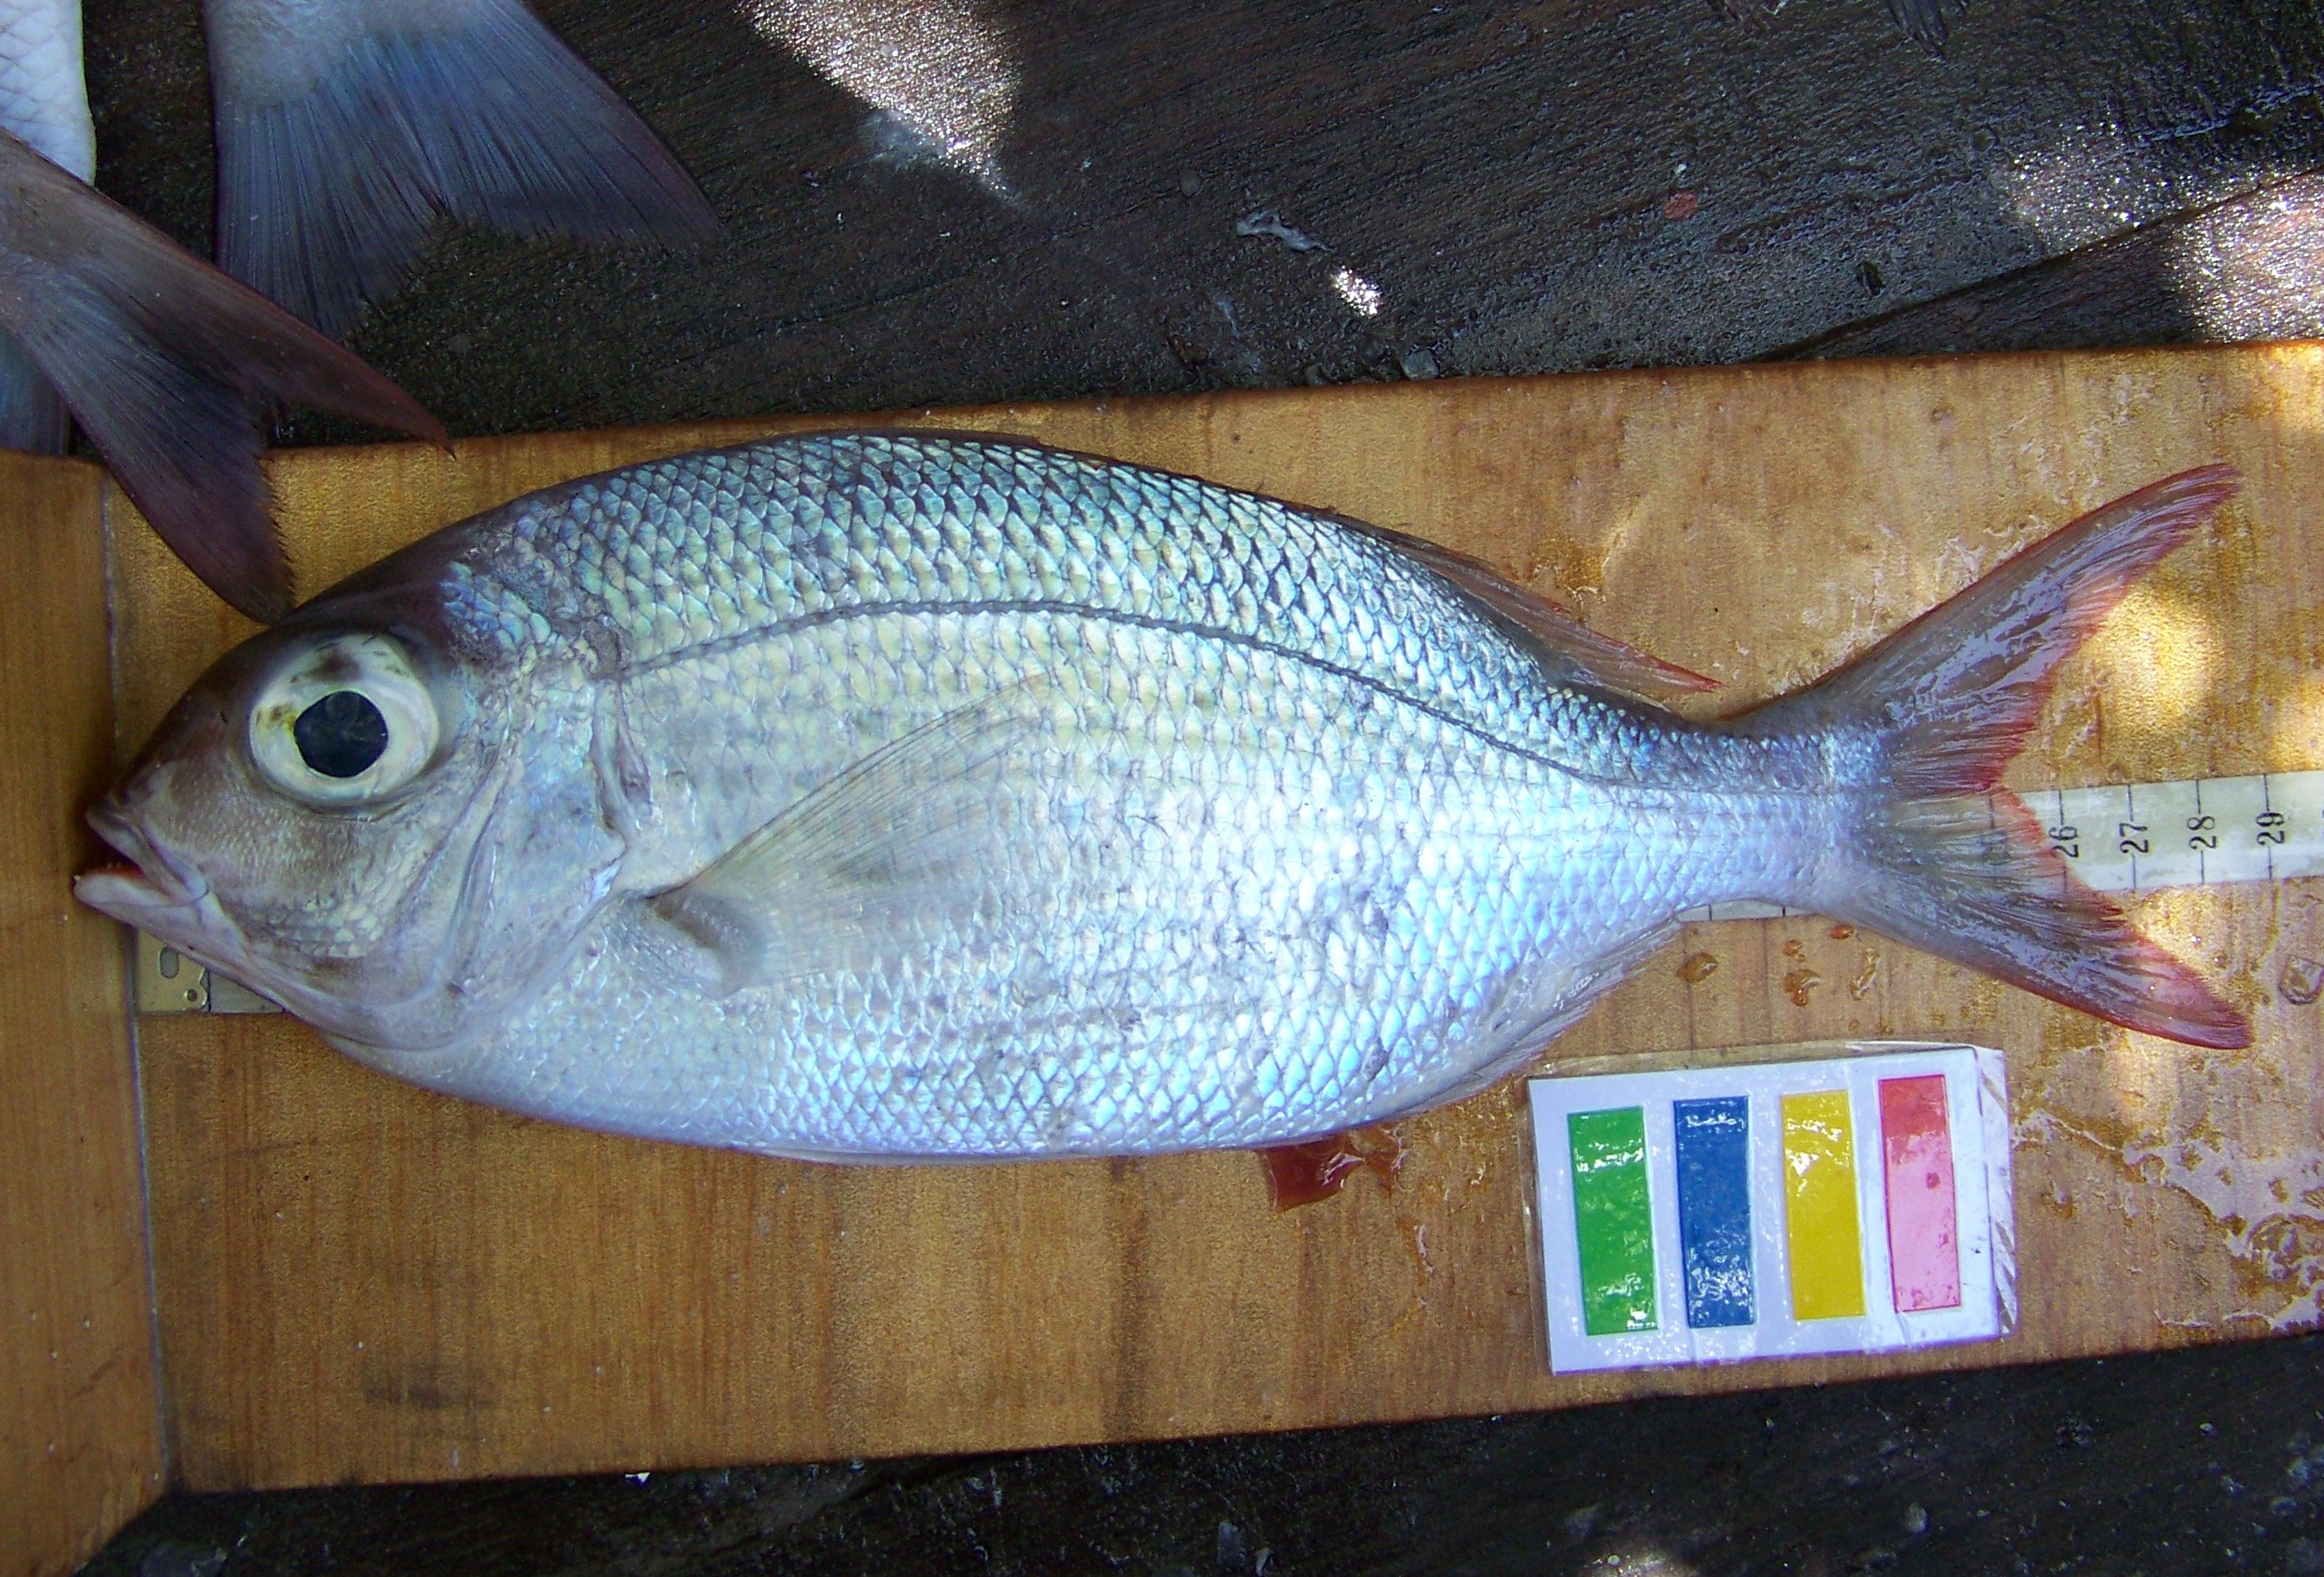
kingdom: Animalia
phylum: Chordata
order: Perciformes
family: Lethrinidae
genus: Gymnocranius
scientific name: Gymnocranius microdon
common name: Blue-spotted large-eye bream
